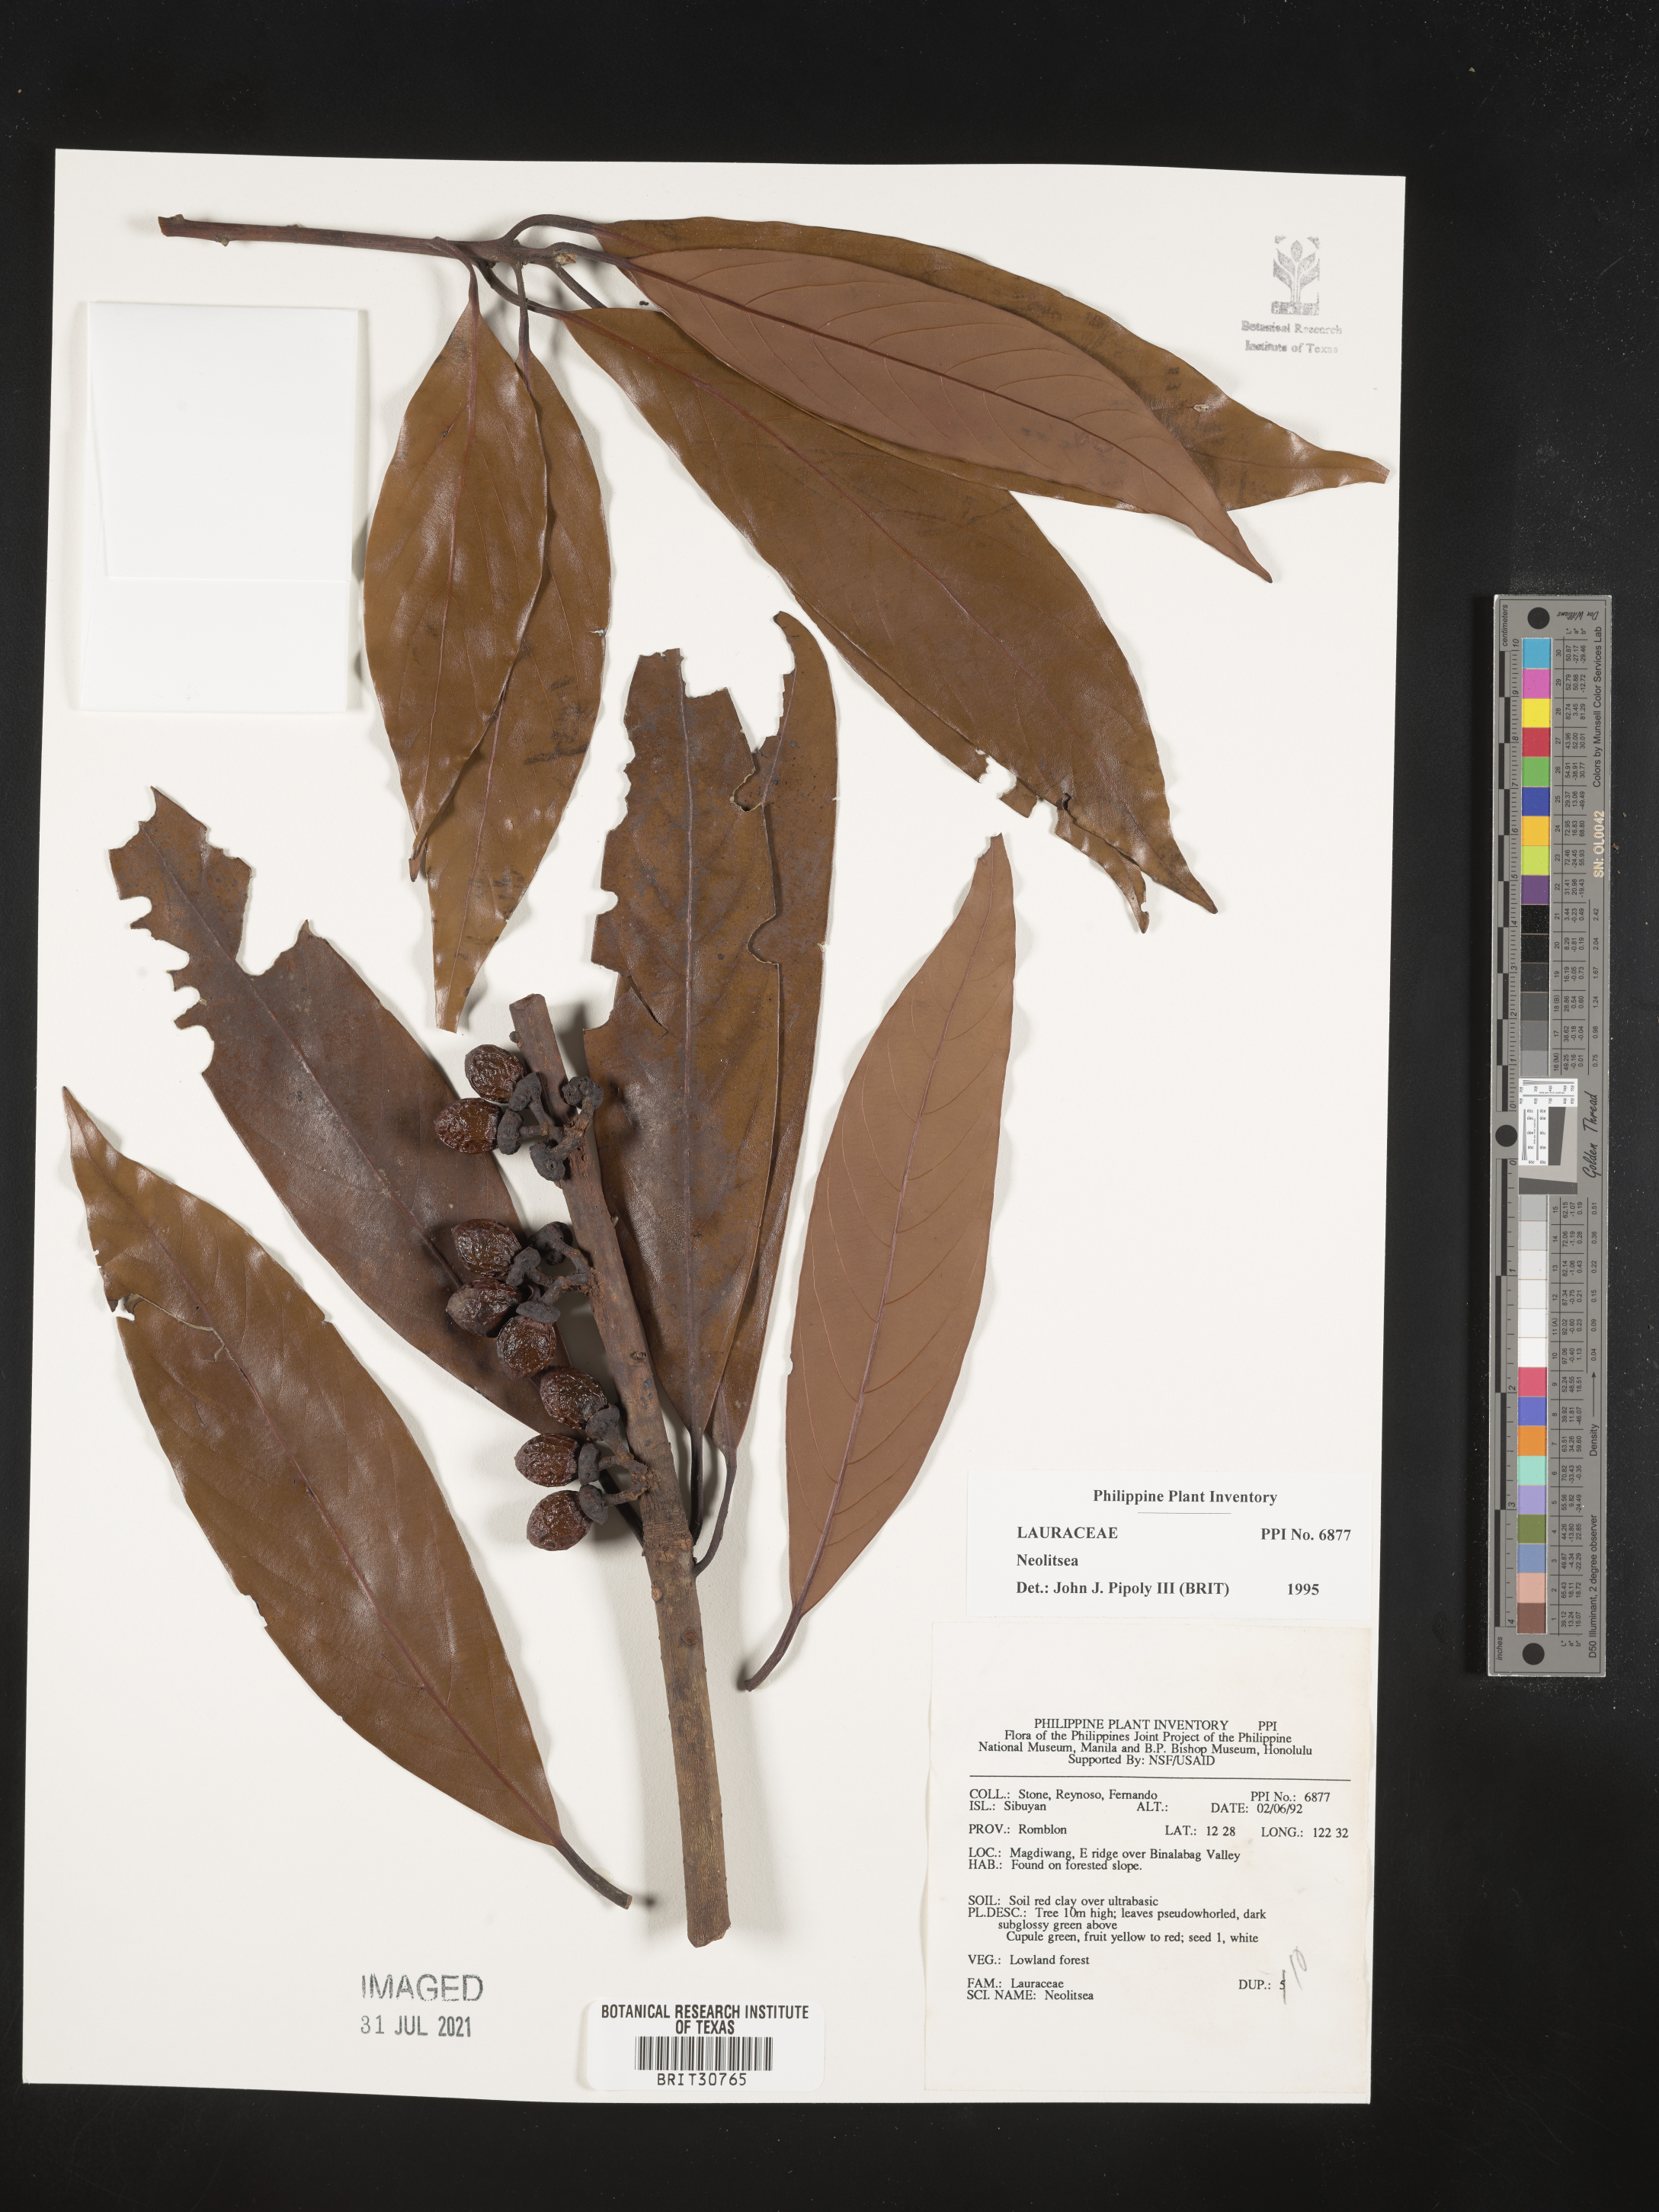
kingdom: Plantae
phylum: Tracheophyta
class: Magnoliopsida
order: Laurales
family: Lauraceae
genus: Neolitsea
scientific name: Neolitsea
